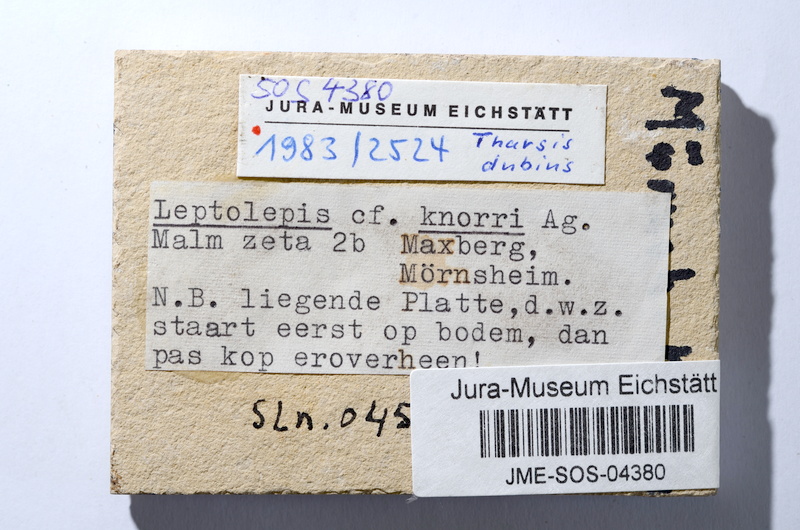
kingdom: Animalia
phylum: Chordata
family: Ascalaboidae
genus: Tharsis
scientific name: Tharsis dubius
